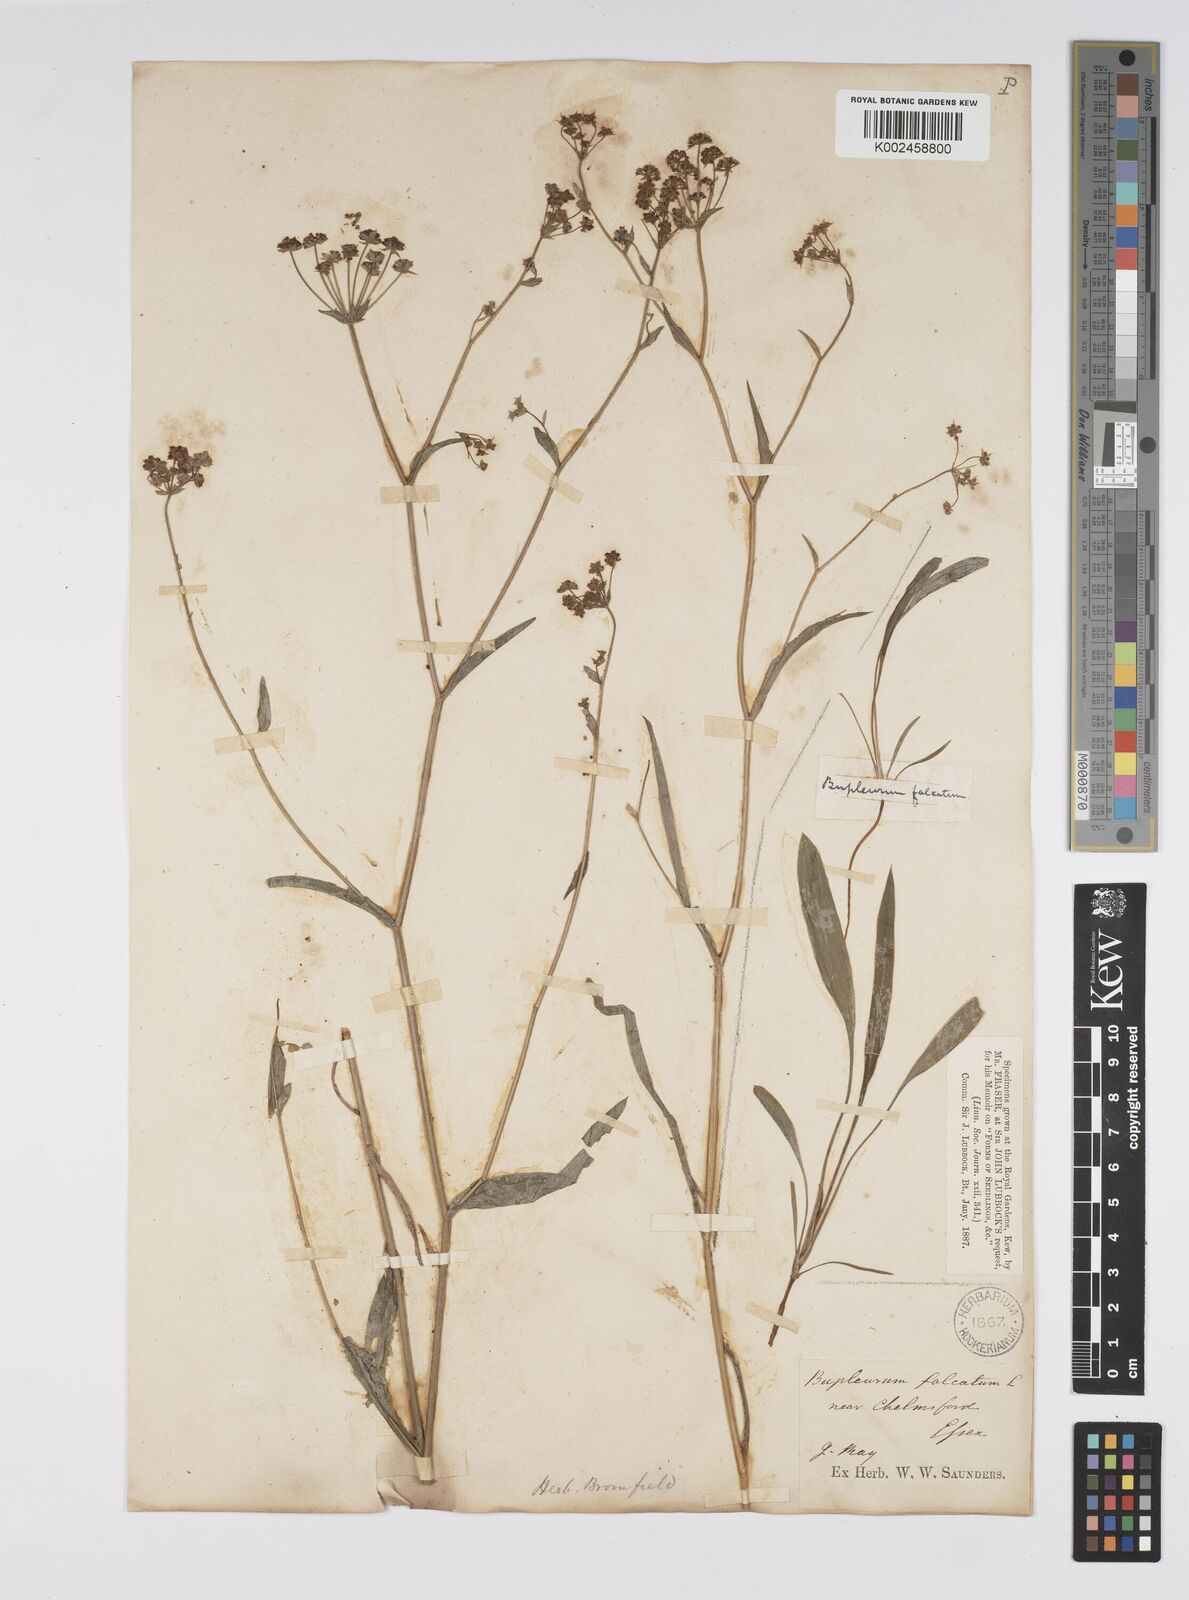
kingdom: Plantae
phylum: Tracheophyta
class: Magnoliopsida
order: Apiales
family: Apiaceae
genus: Bupleurum
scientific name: Bupleurum falcatum
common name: Sickle-leaved hare's-ear
